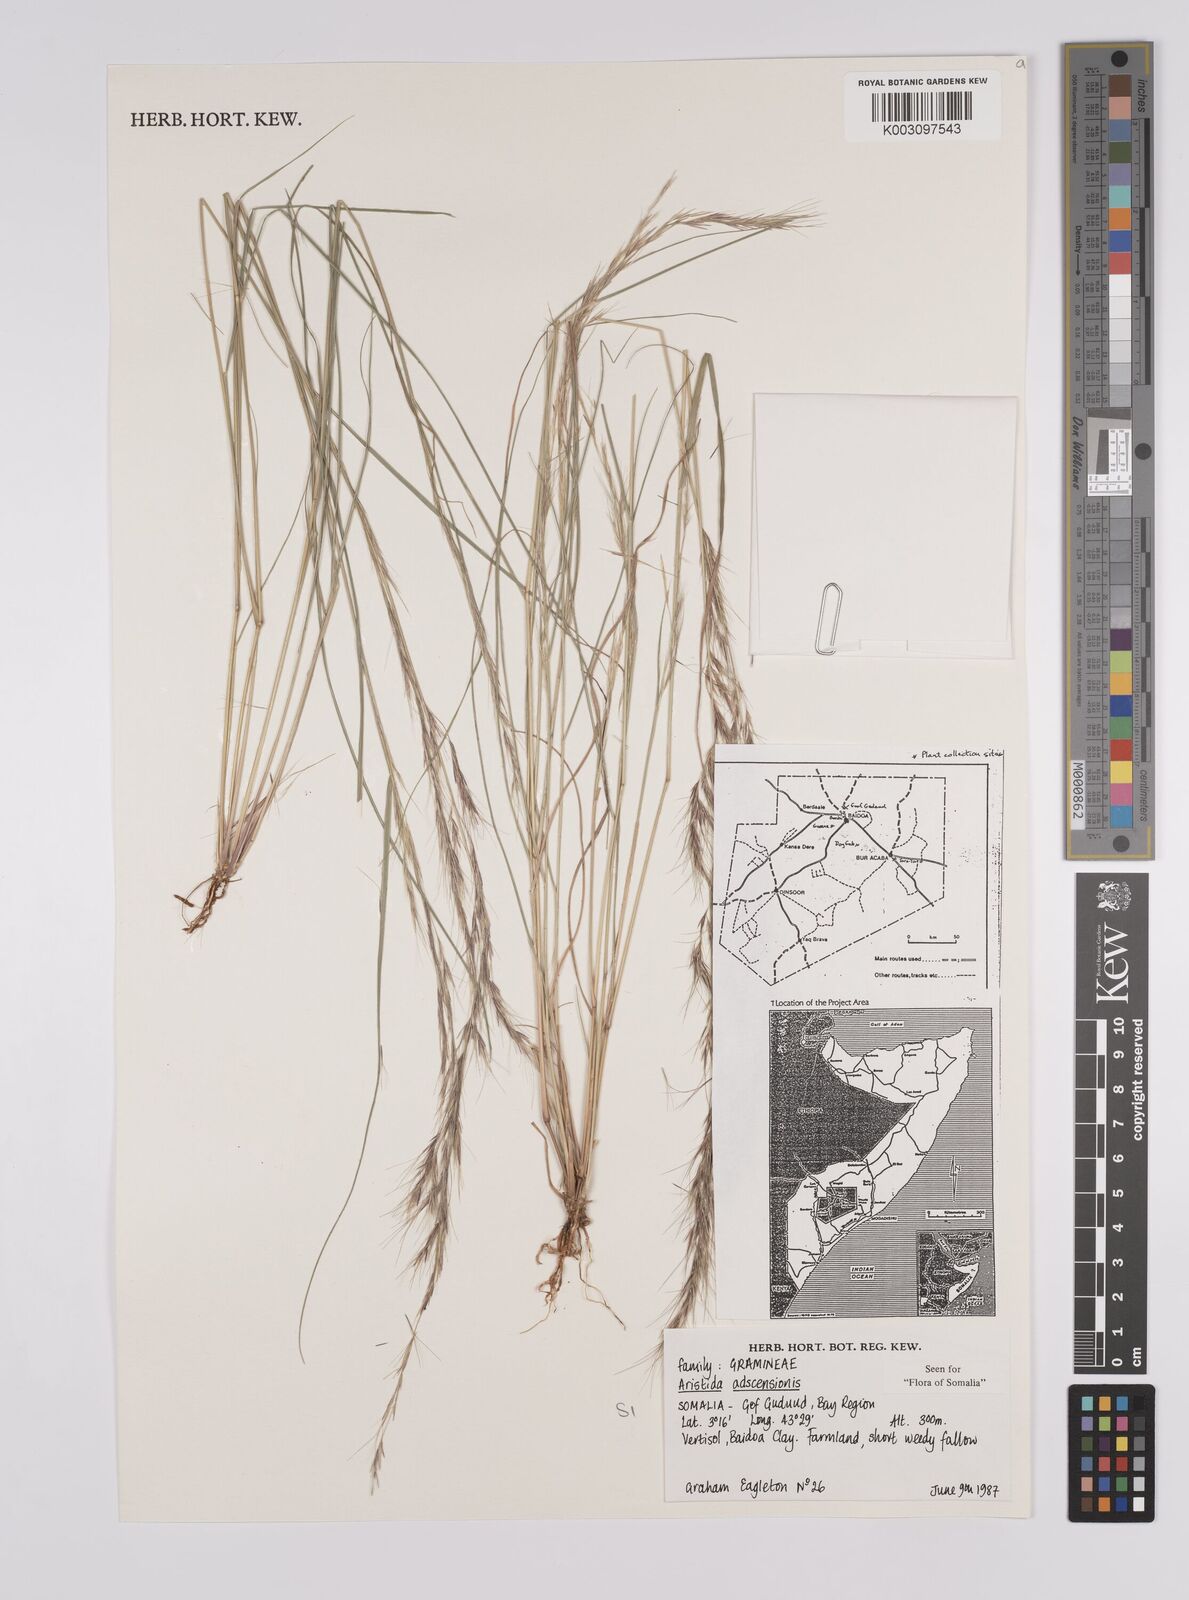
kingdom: Plantae
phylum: Tracheophyta
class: Liliopsida
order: Poales
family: Poaceae
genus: Aristida
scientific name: Aristida laevis
